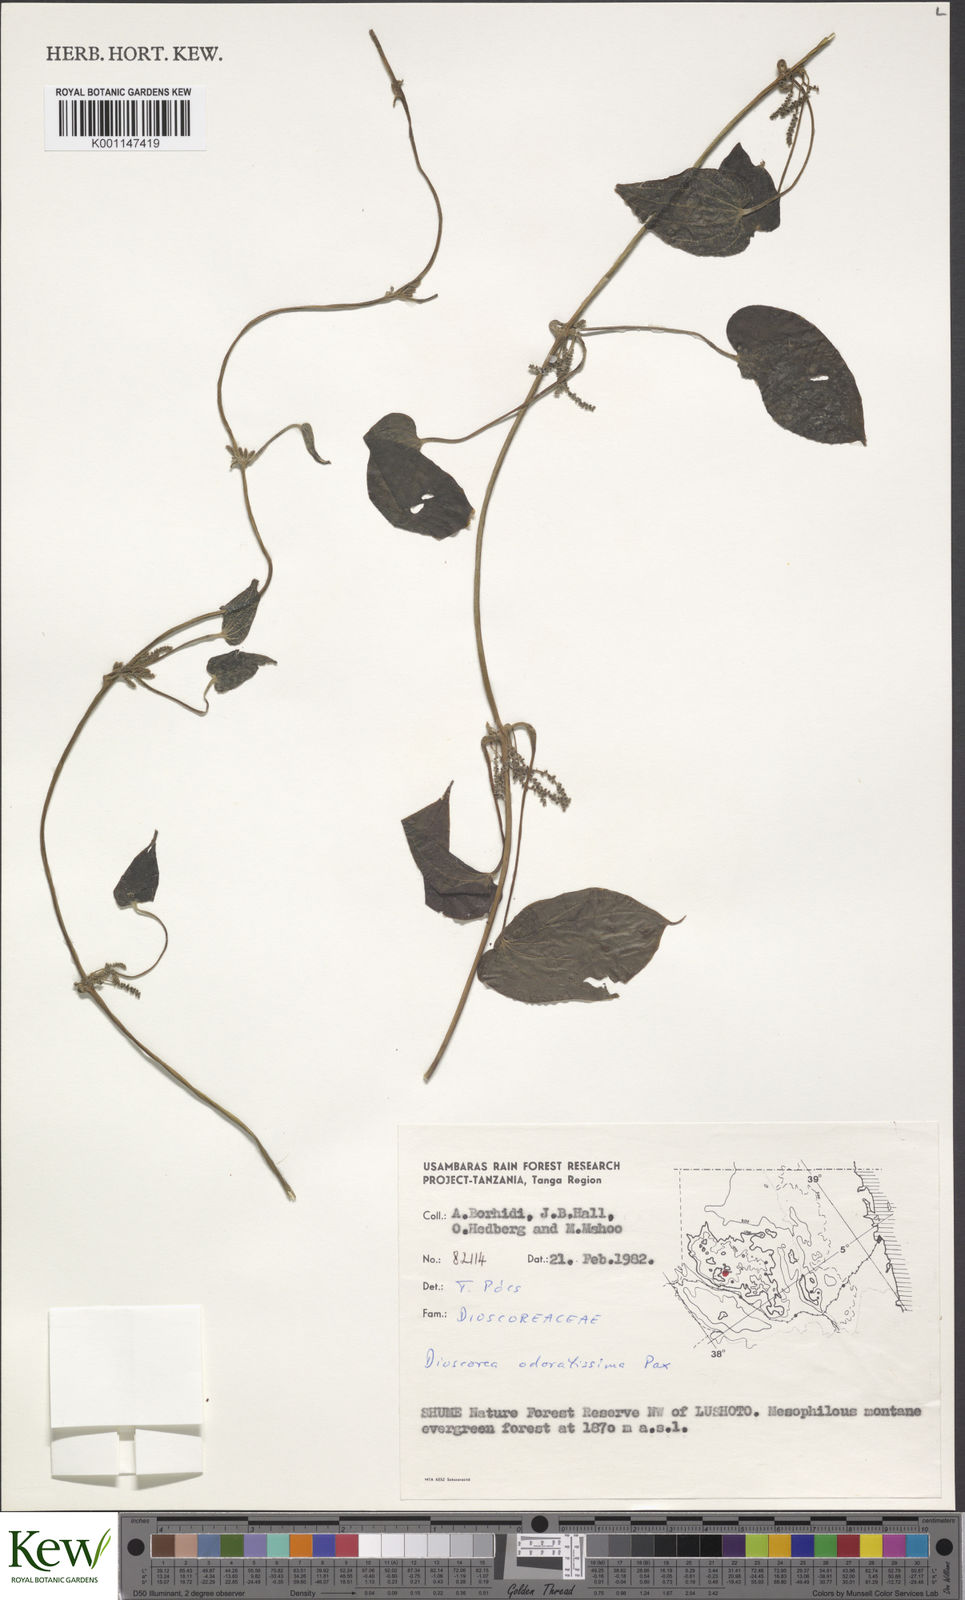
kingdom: Plantae
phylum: Tracheophyta
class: Liliopsida
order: Dioscoreales
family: Dioscoreaceae
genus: Dioscorea
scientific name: Dioscorea praehensilis
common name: Bush yam
